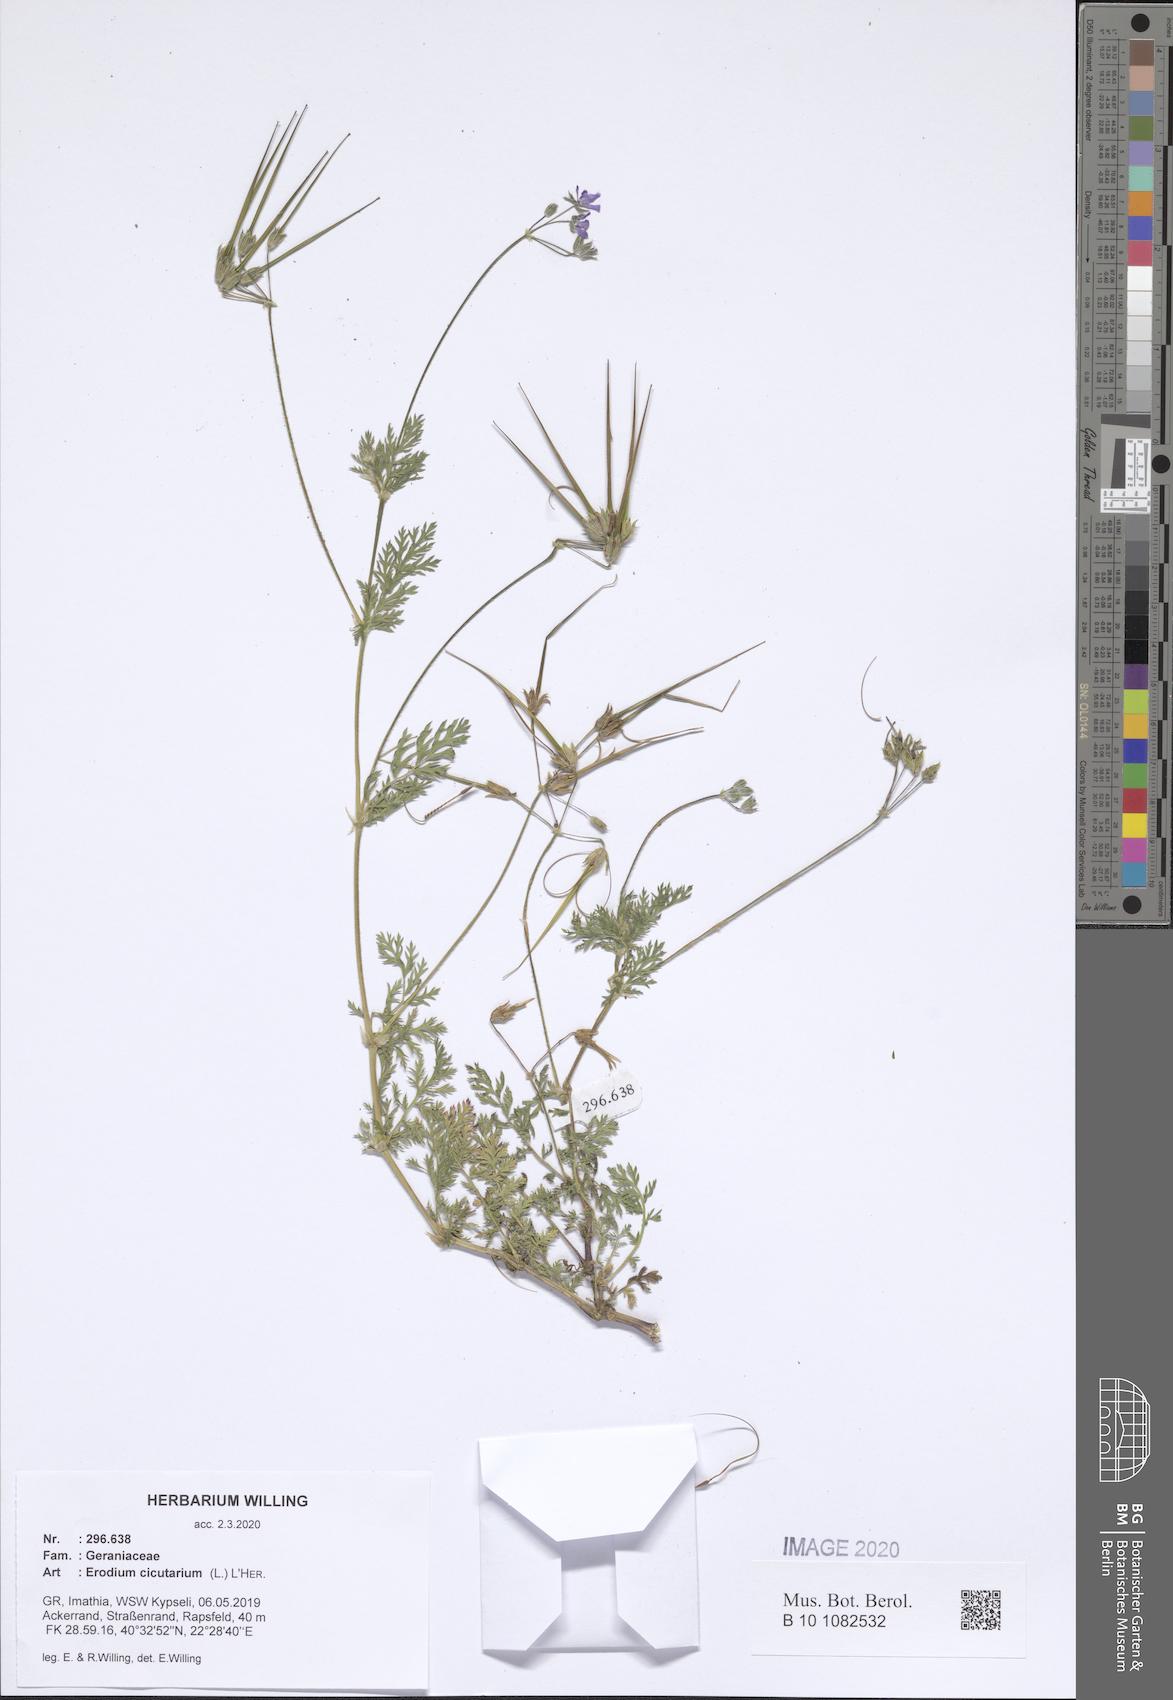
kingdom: Plantae
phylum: Tracheophyta
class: Magnoliopsida
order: Geraniales
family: Geraniaceae
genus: Erodium
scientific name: Erodium cicutarium
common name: Common stork's-bill
